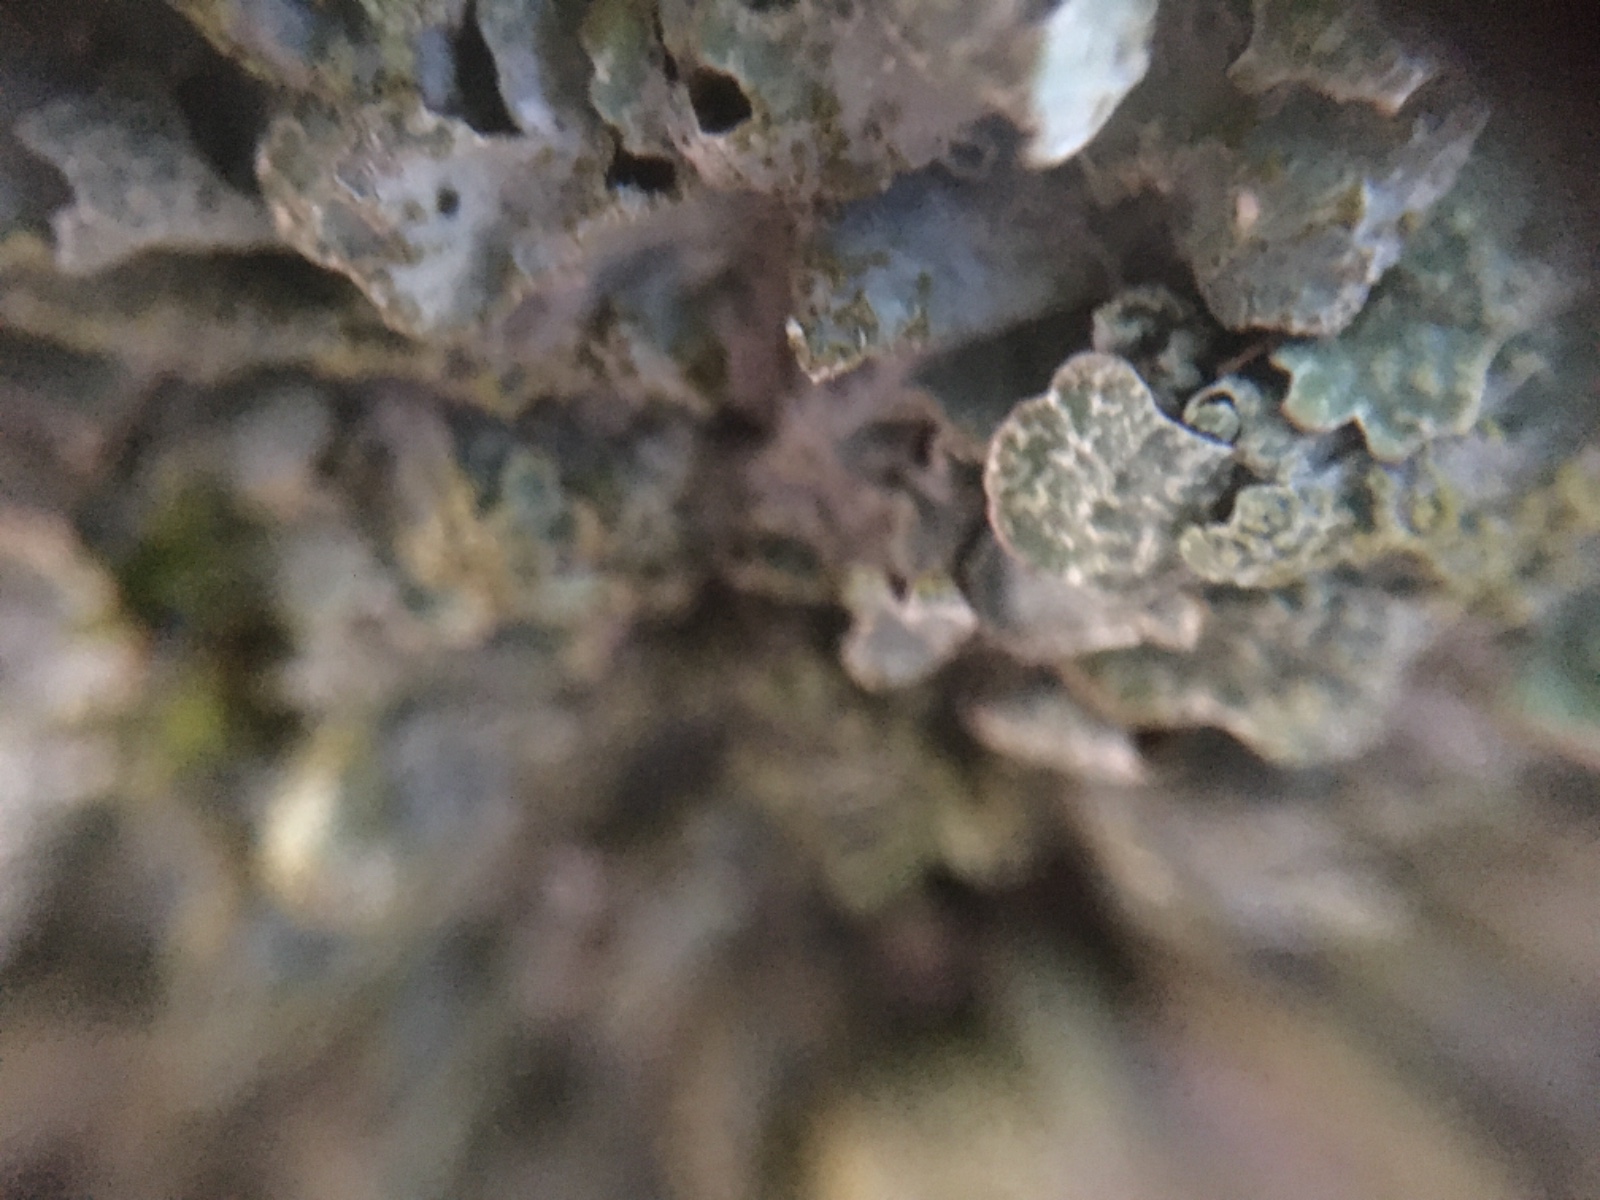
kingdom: Fungi
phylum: Ascomycota
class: Lecanoromycetes
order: Lecanorales
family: Parmeliaceae
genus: Parmelia
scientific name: Parmelia sulcata
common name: rynket skållav
